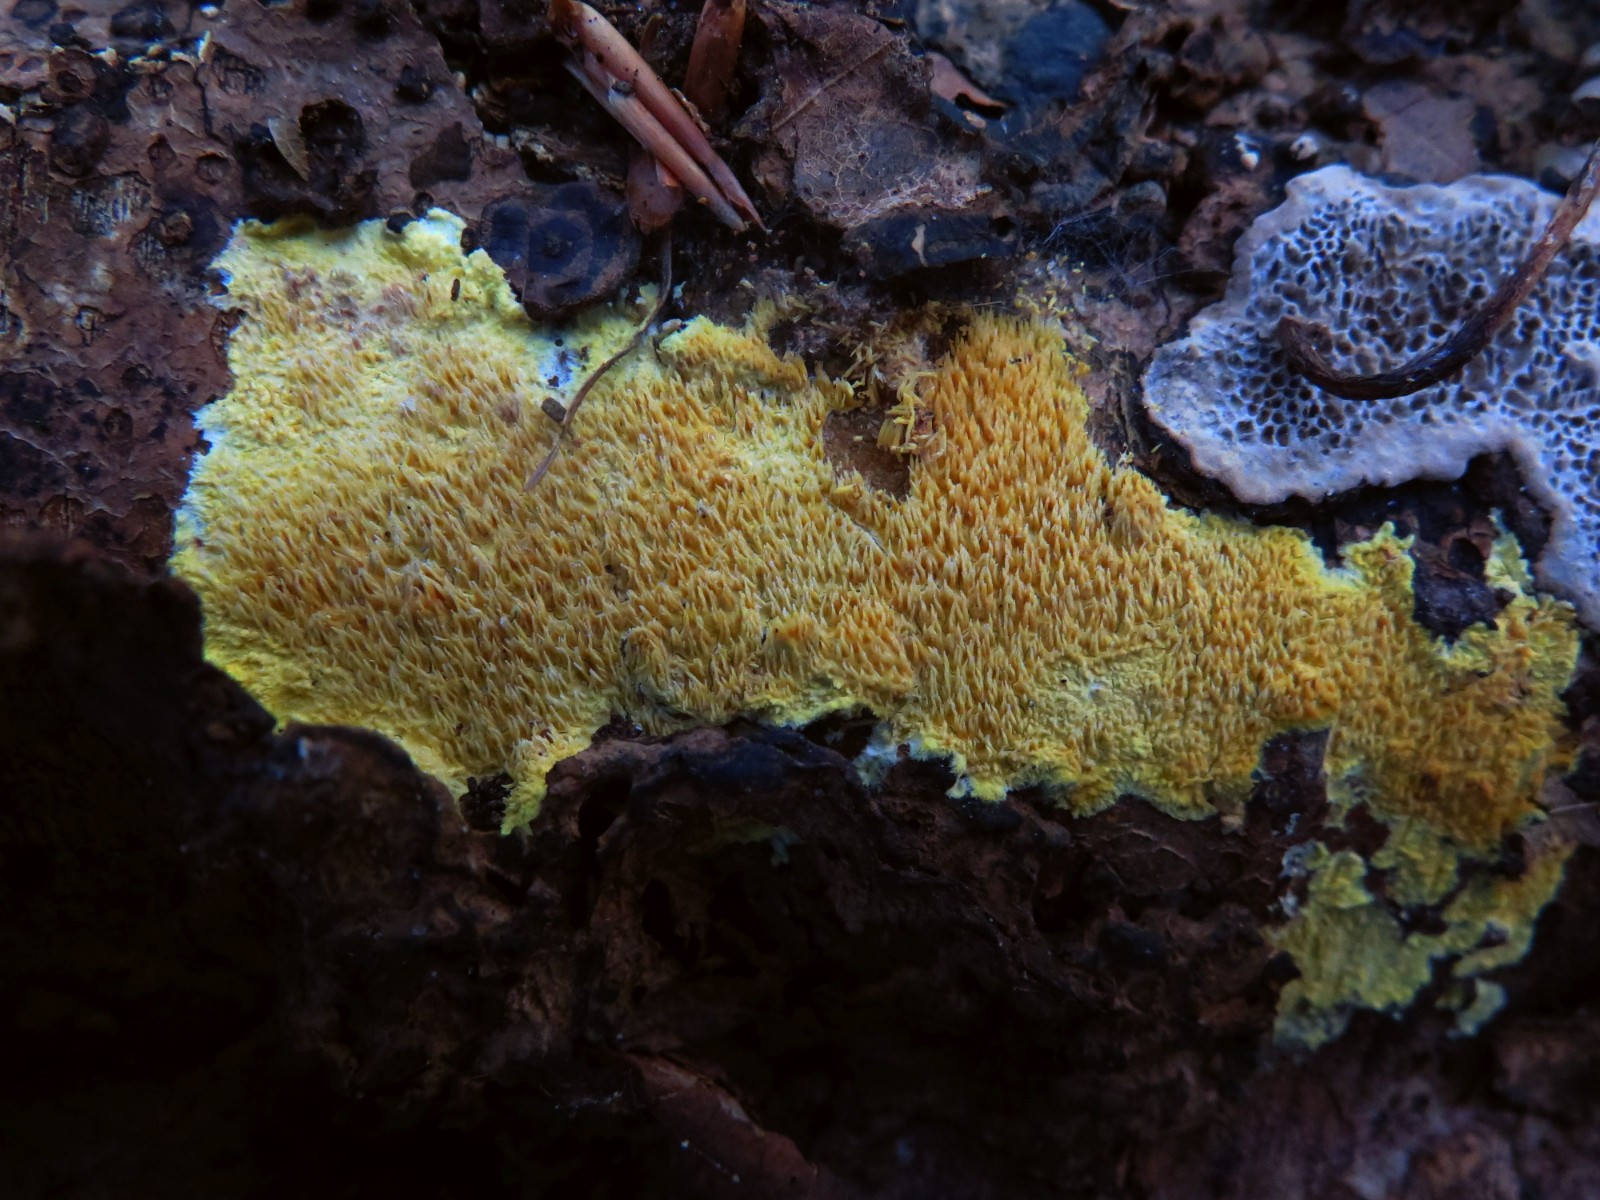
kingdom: Fungi
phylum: Basidiomycota
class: Agaricomycetes
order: Polyporales
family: Meruliaceae
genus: Mycoacia
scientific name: Mycoacia uda
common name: citrongul vokspig
